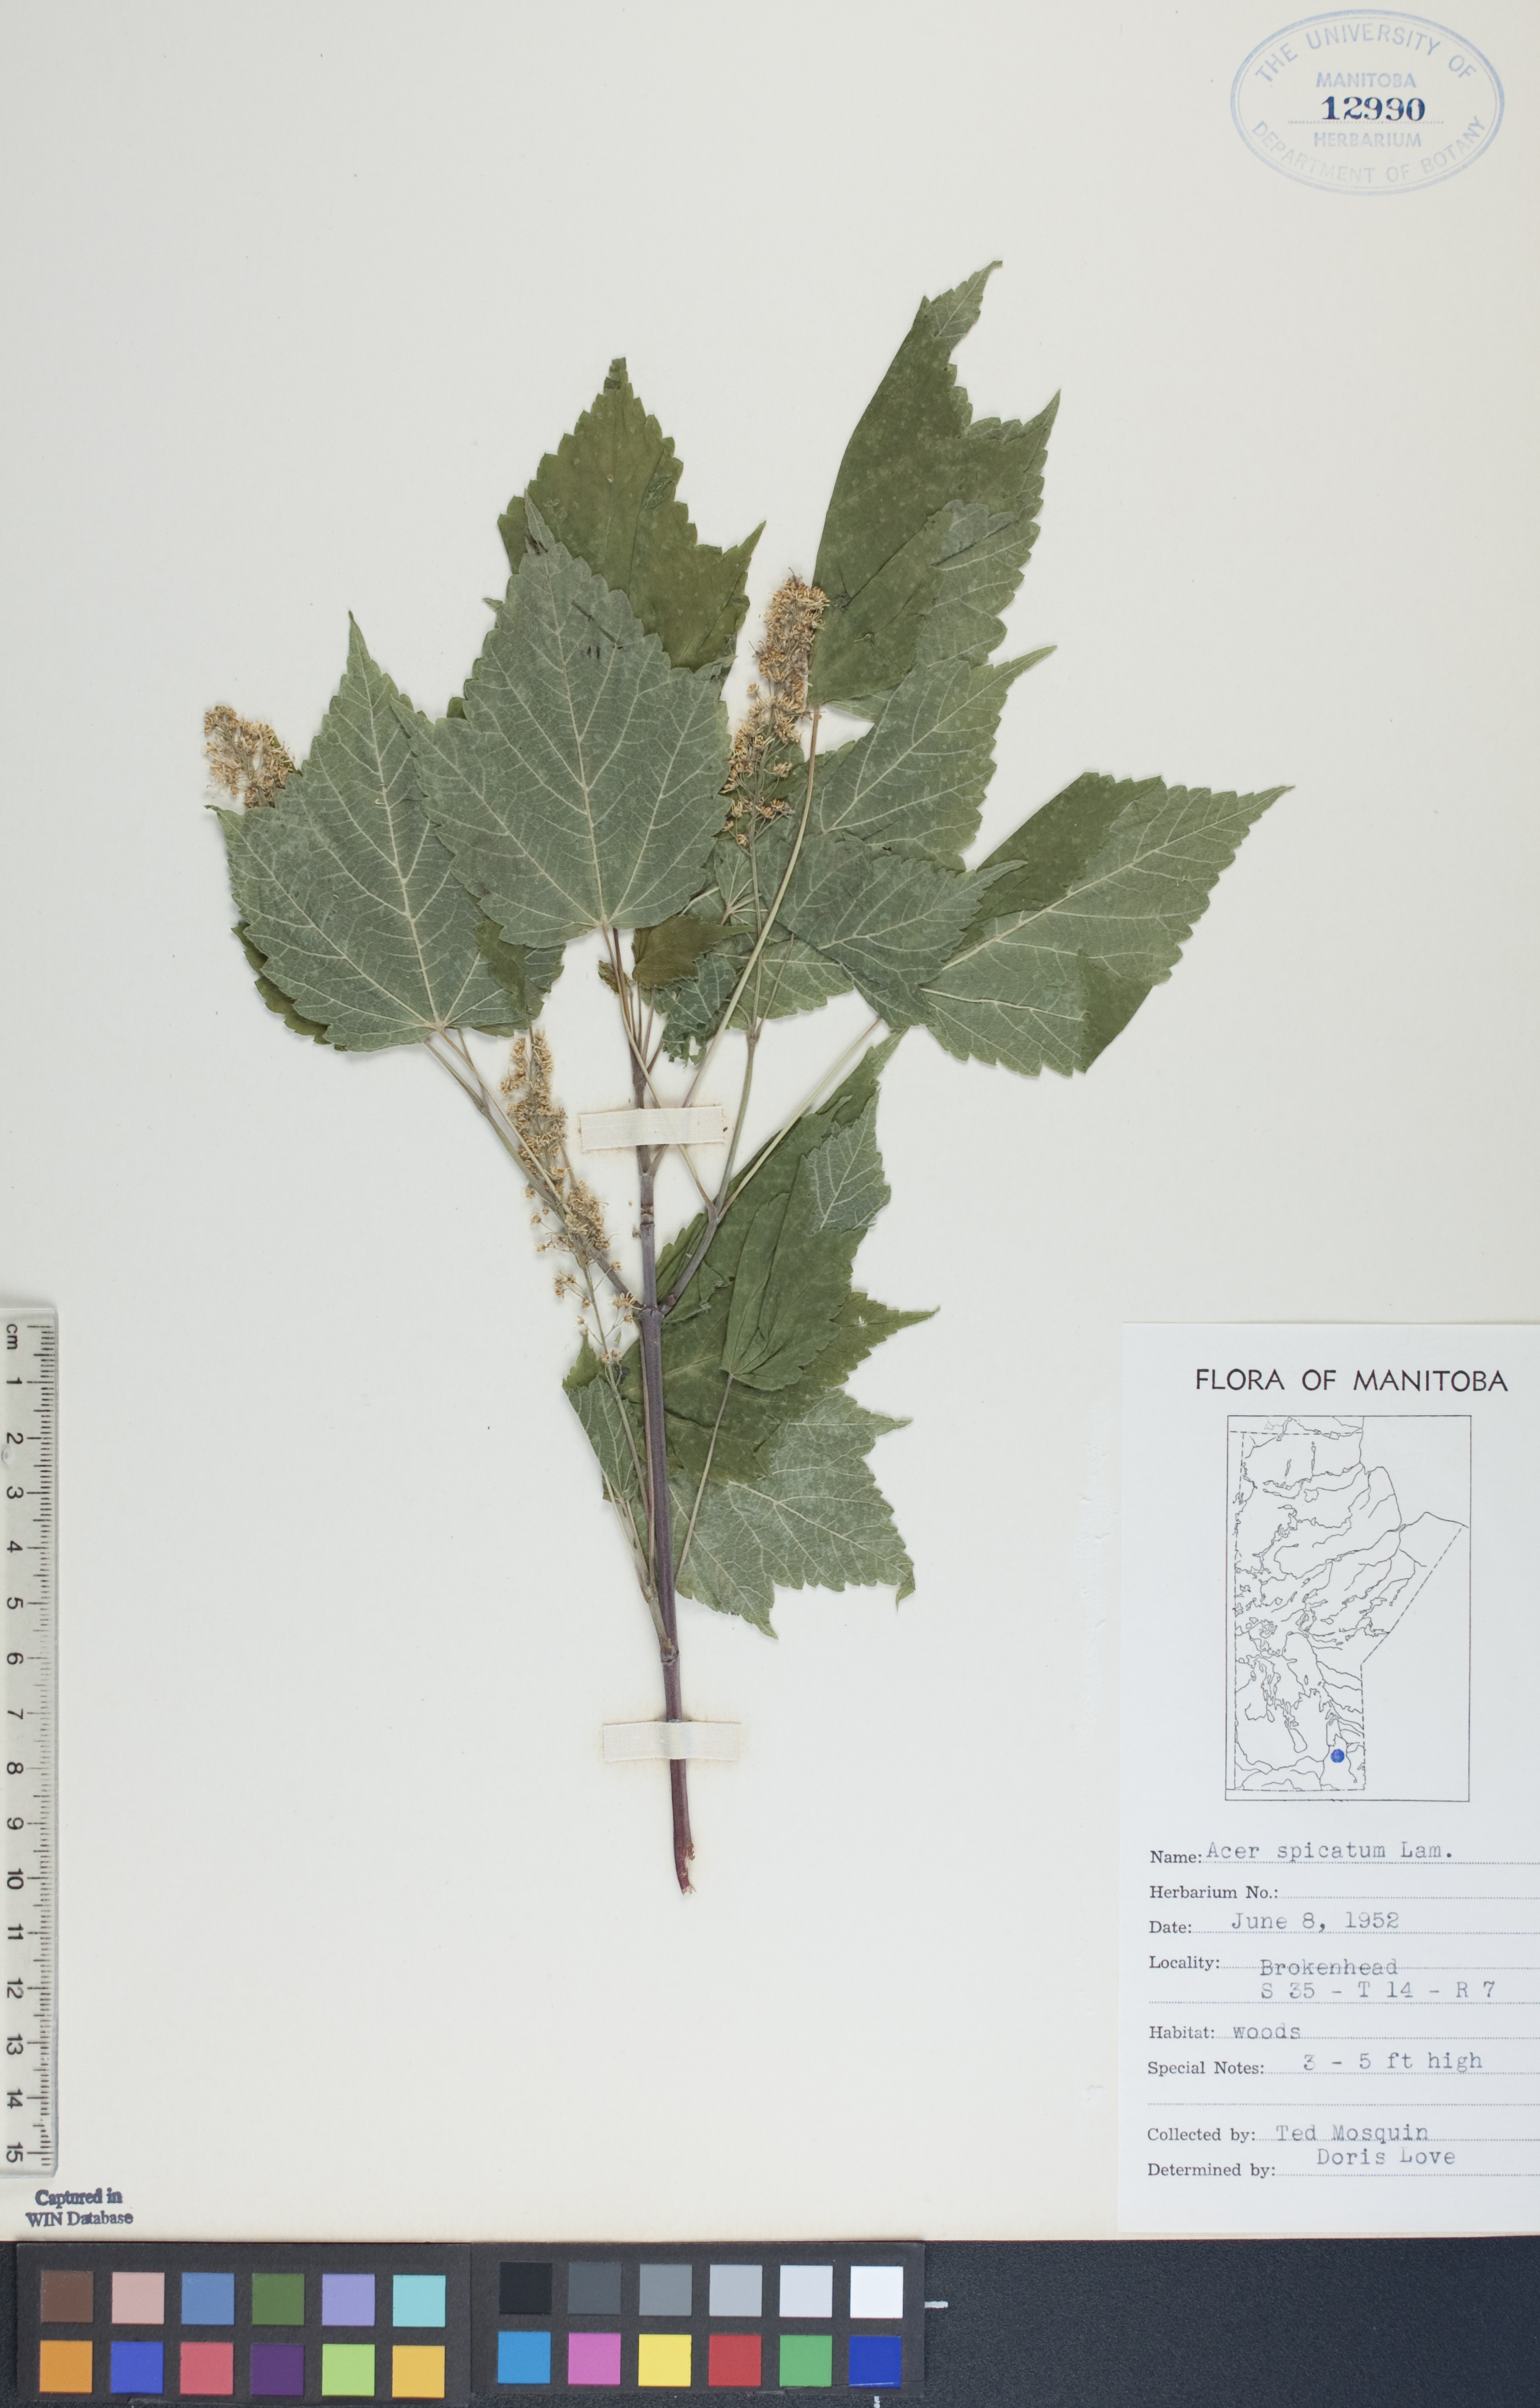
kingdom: Plantae
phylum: Tracheophyta
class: Magnoliopsida
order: Sapindales
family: Sapindaceae
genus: Acer
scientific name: Acer spicatum
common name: Mountain maple
